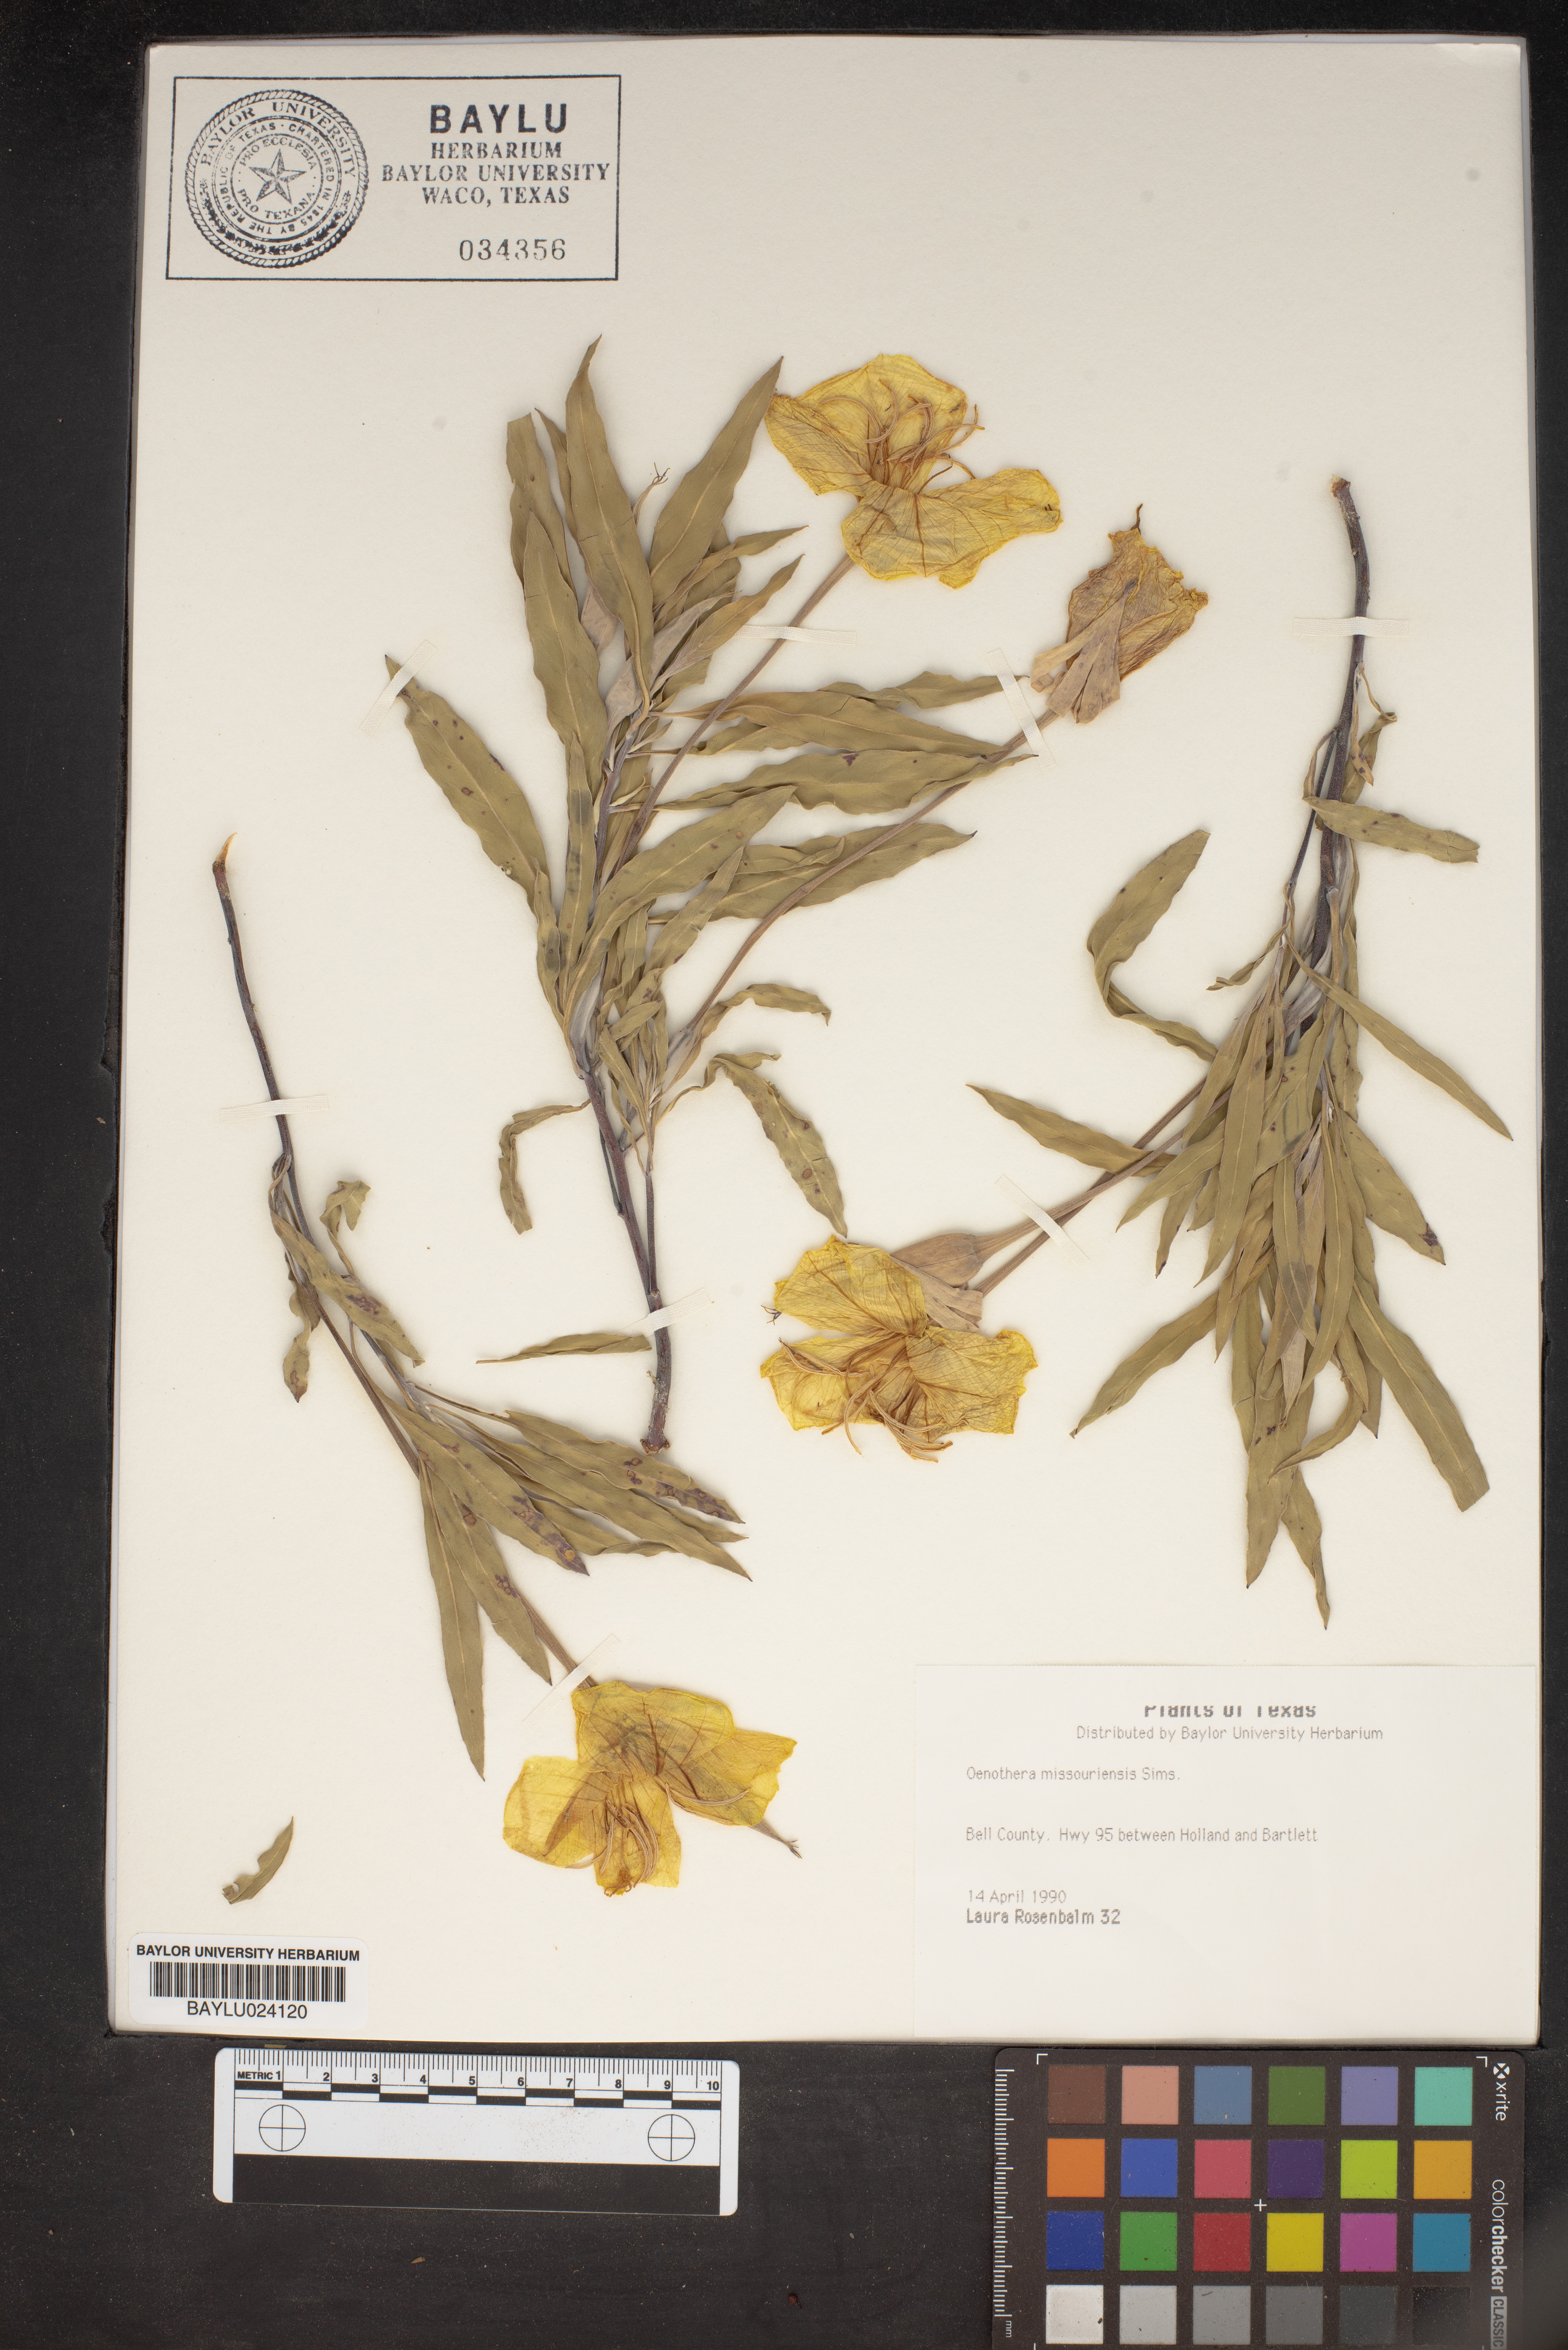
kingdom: Plantae
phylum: Tracheophyta
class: Magnoliopsida
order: Myrtales
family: Onagraceae
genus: Oenothera
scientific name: Oenothera macrocarpa
